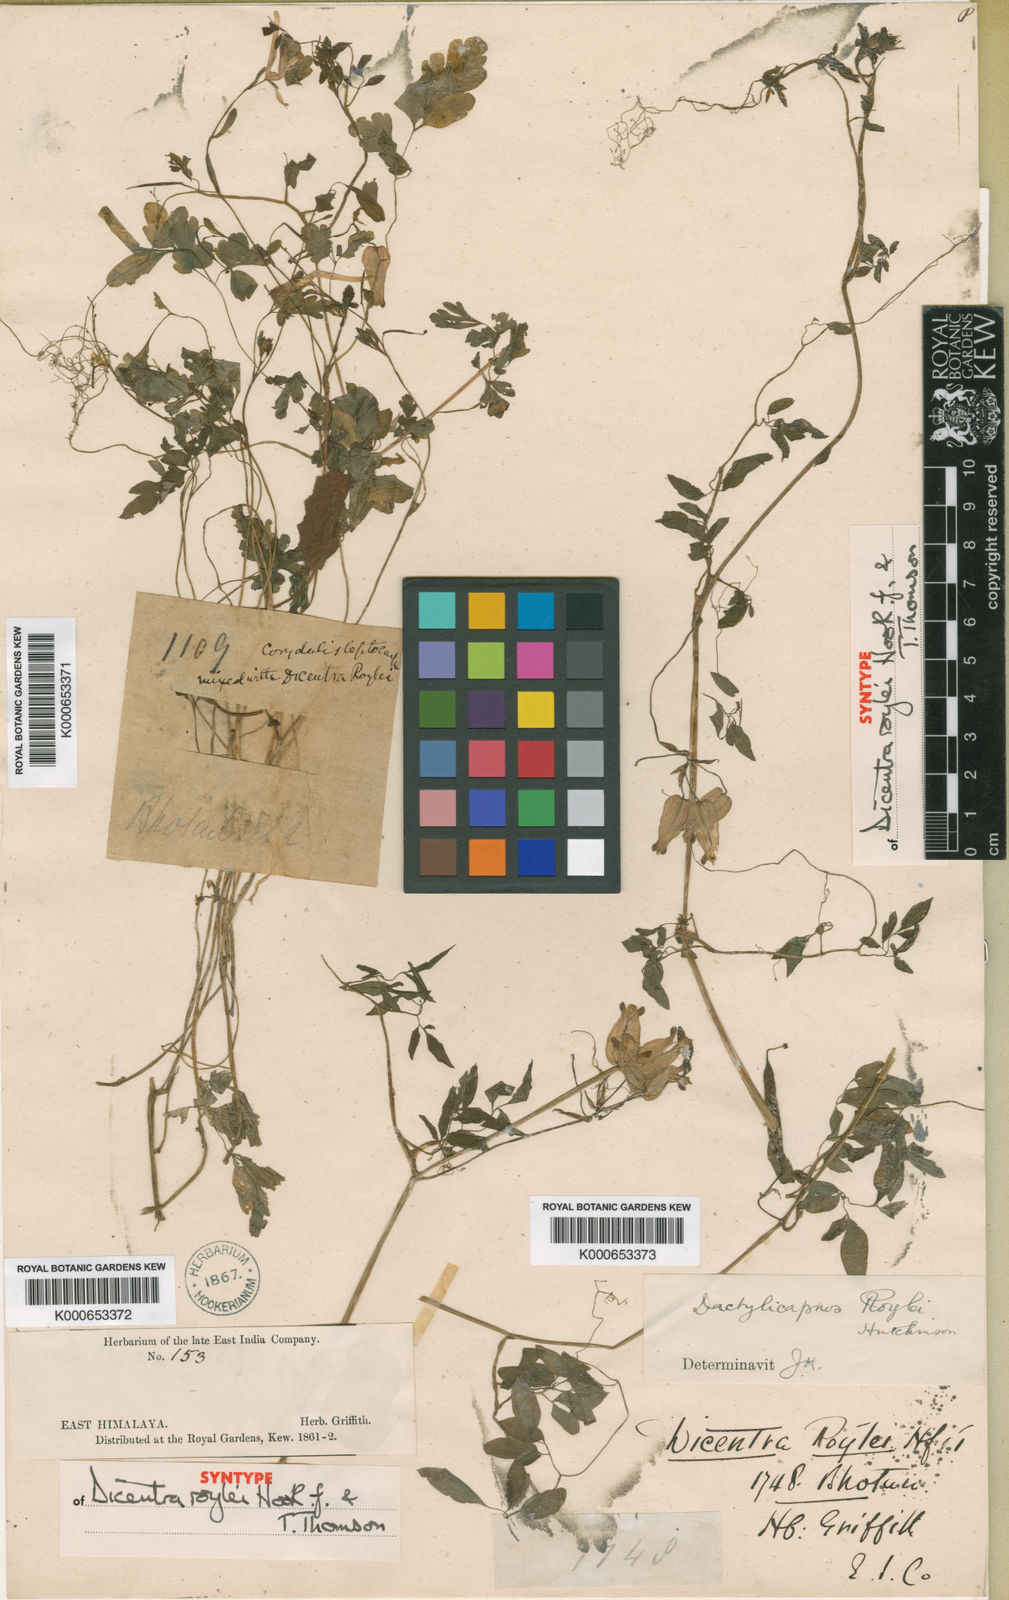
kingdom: Plantae
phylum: Tracheophyta
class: Magnoliopsida
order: Ranunculales
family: Papaveraceae
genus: Dactylicapnos
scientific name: Dactylicapnos roylei
